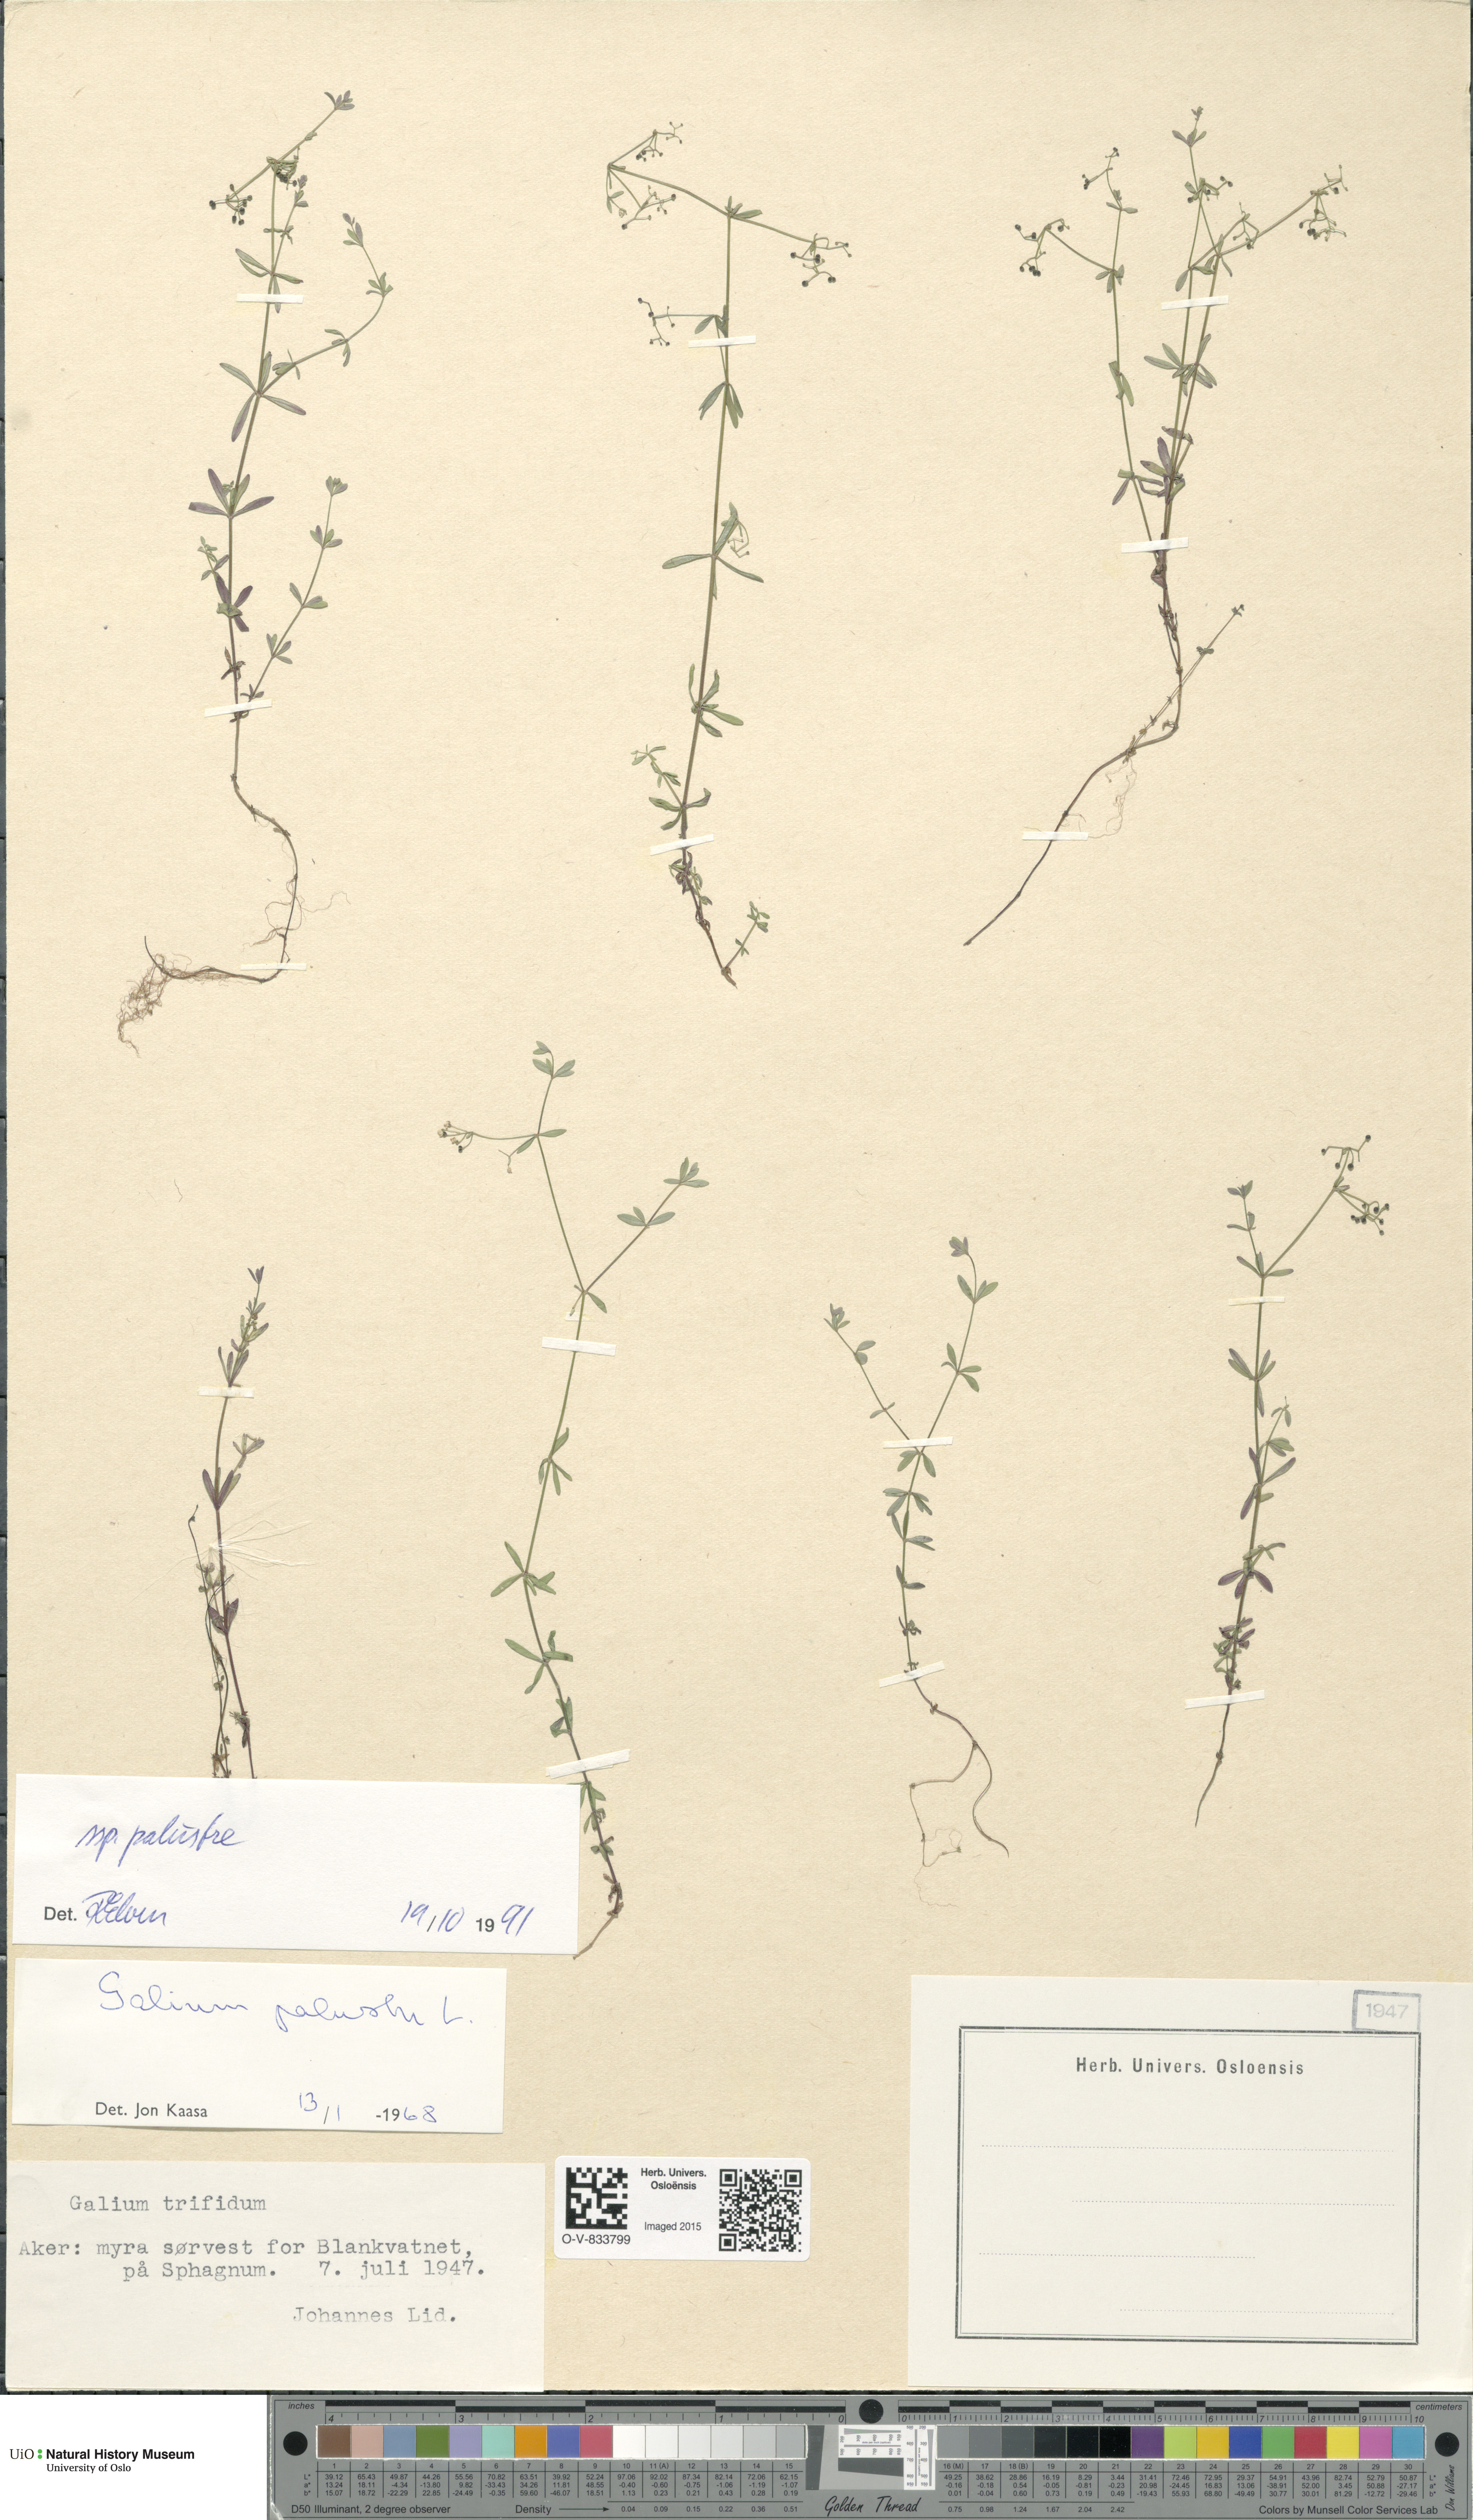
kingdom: Plantae
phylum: Tracheophyta
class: Magnoliopsida
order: Gentianales
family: Rubiaceae
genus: Galium
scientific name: Galium palustre
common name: Common marsh-bedstraw
